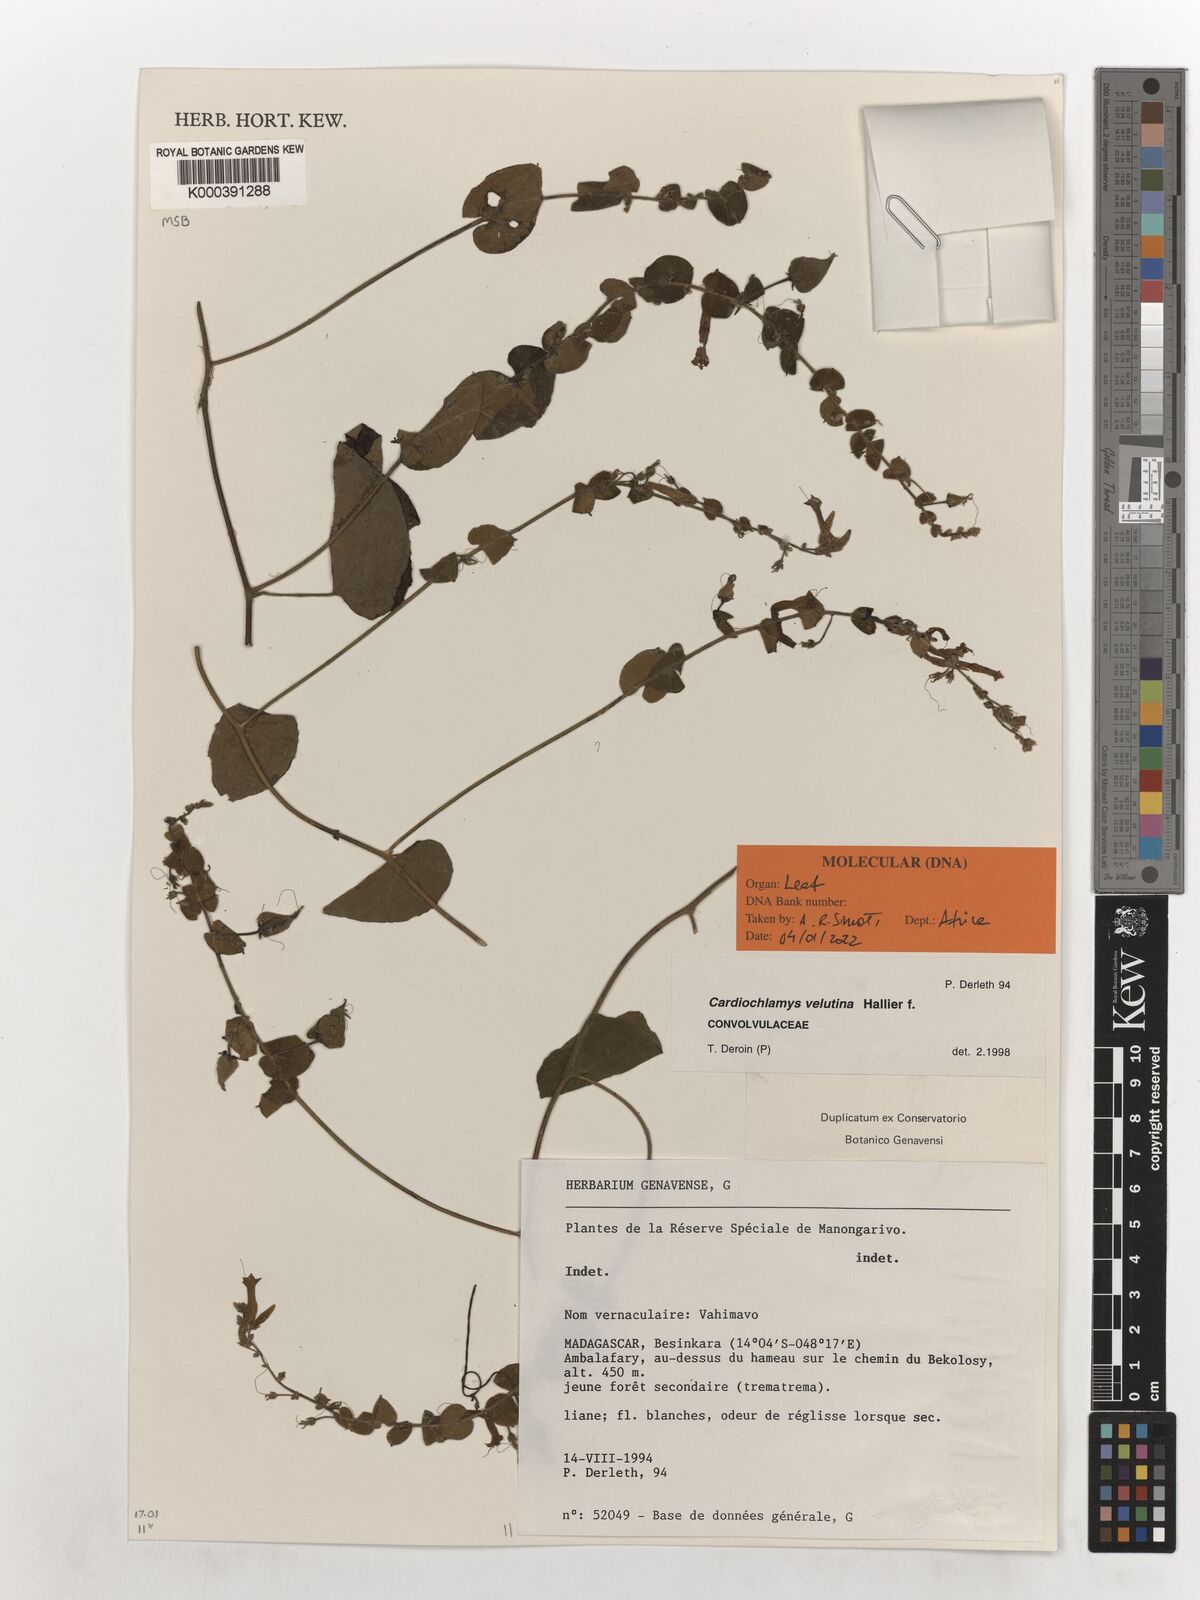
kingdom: Plantae
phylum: Tracheophyta
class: Magnoliopsida
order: Solanales
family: Convolvulaceae
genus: Cardiochlamys
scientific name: Cardiochlamys velutina
